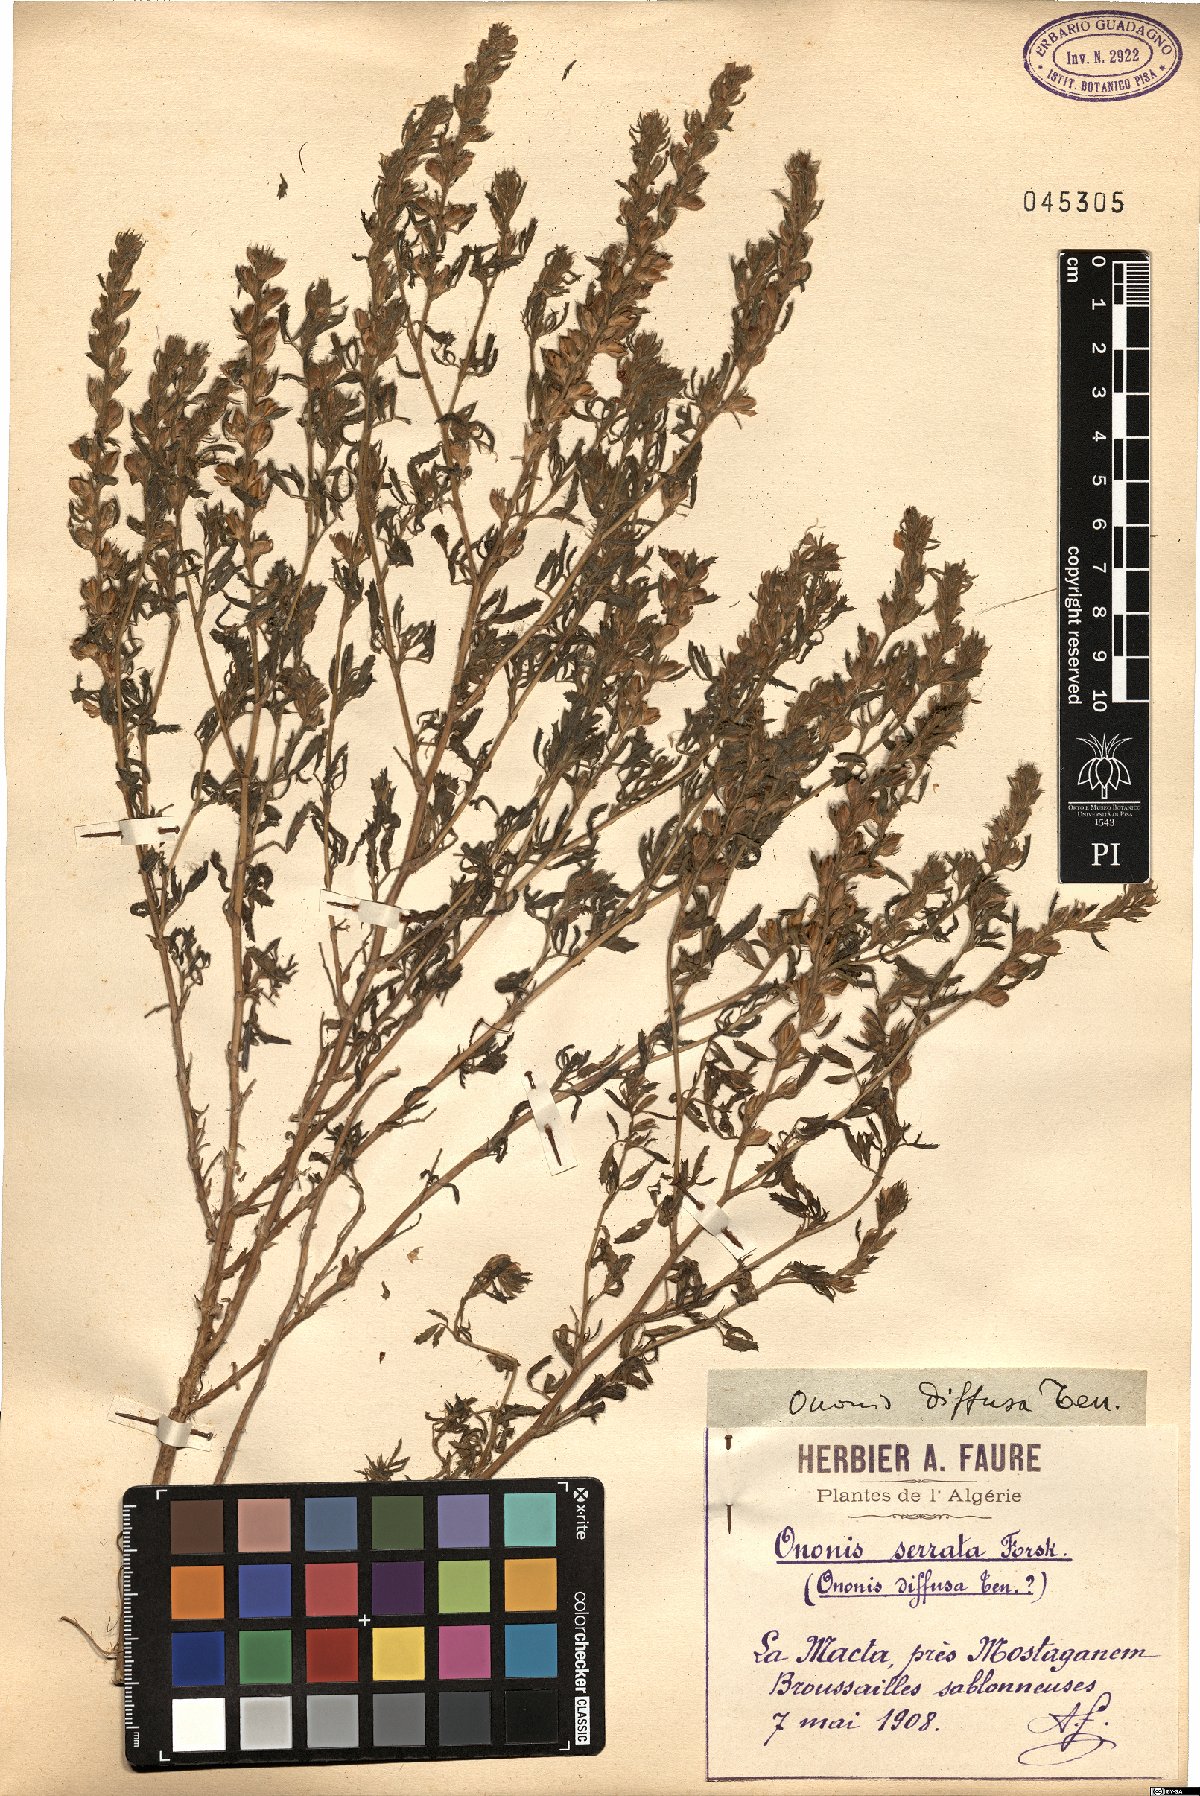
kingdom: Plantae
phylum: Tracheophyta
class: Magnoliopsida
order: Fabales
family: Fabaceae
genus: Ononis
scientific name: Ononis diffusa
